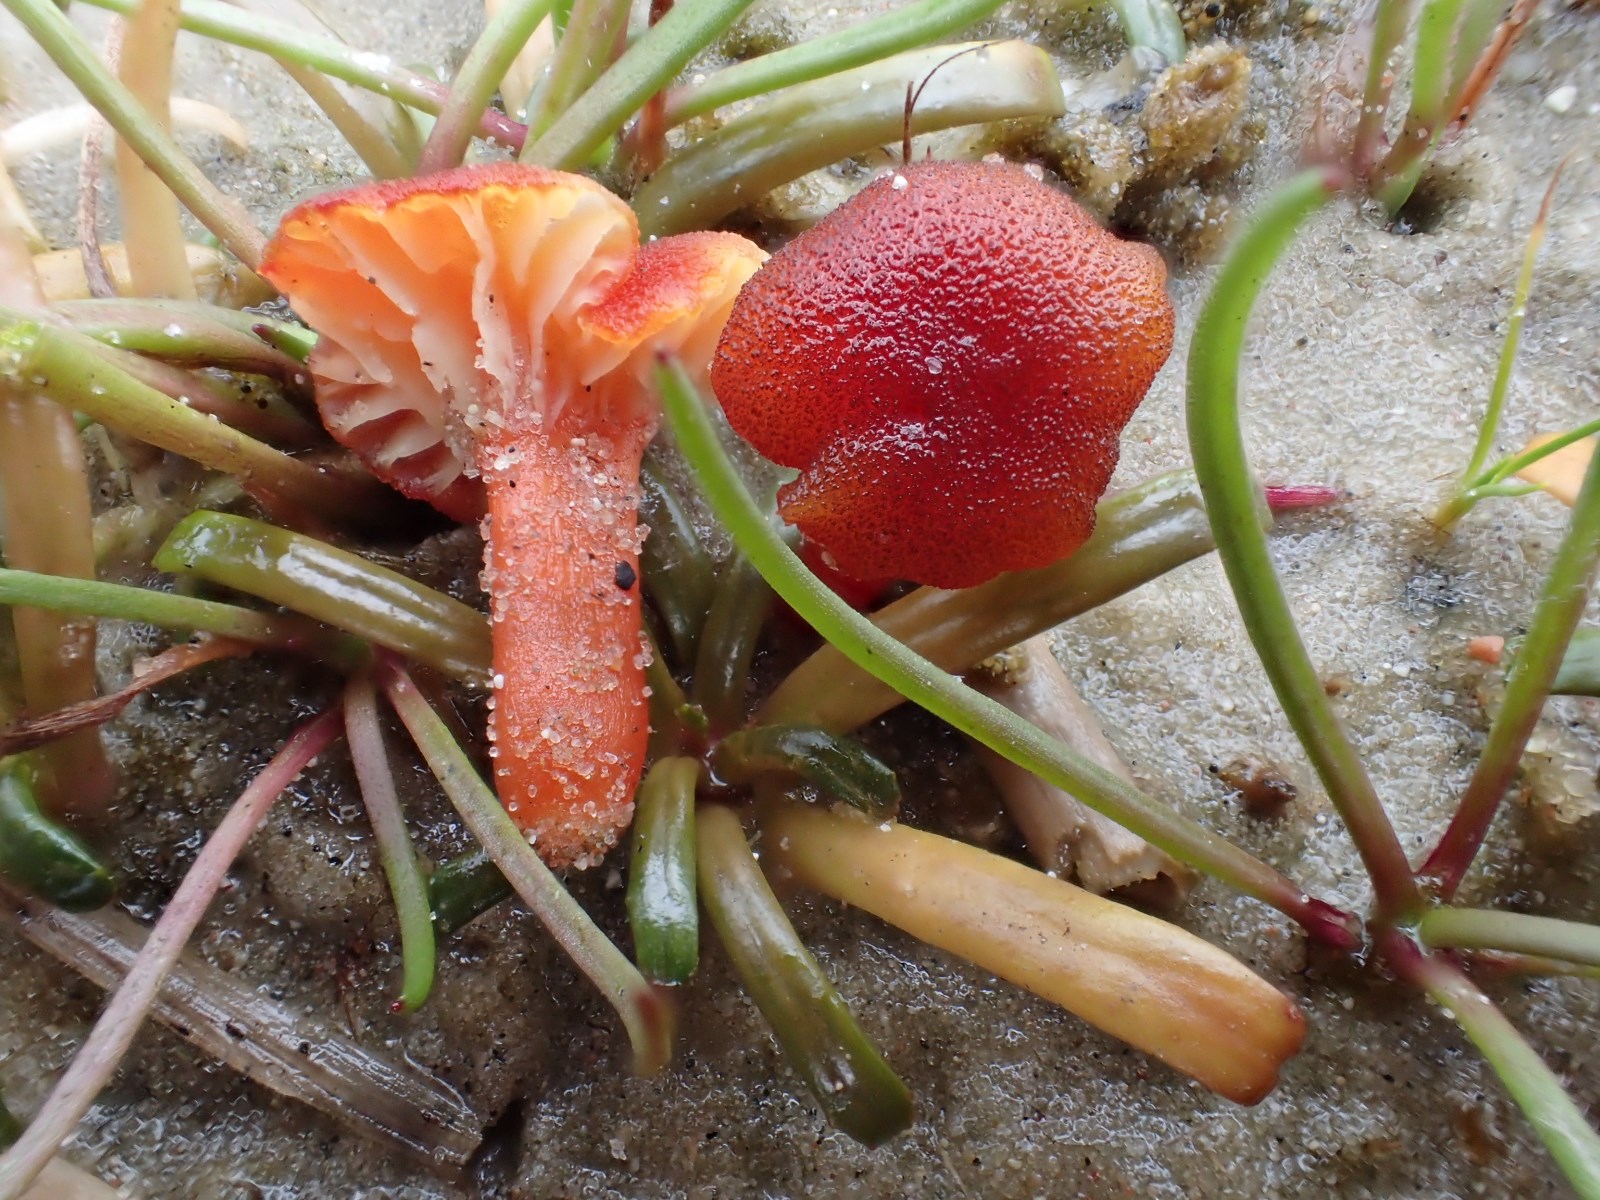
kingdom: Fungi
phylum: Basidiomycota
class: Agaricomycetes
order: Agaricales
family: Hygrophoraceae
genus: Hygrocybe
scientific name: Hygrocybe coccineocrenata
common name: tørvemos-vokshat
